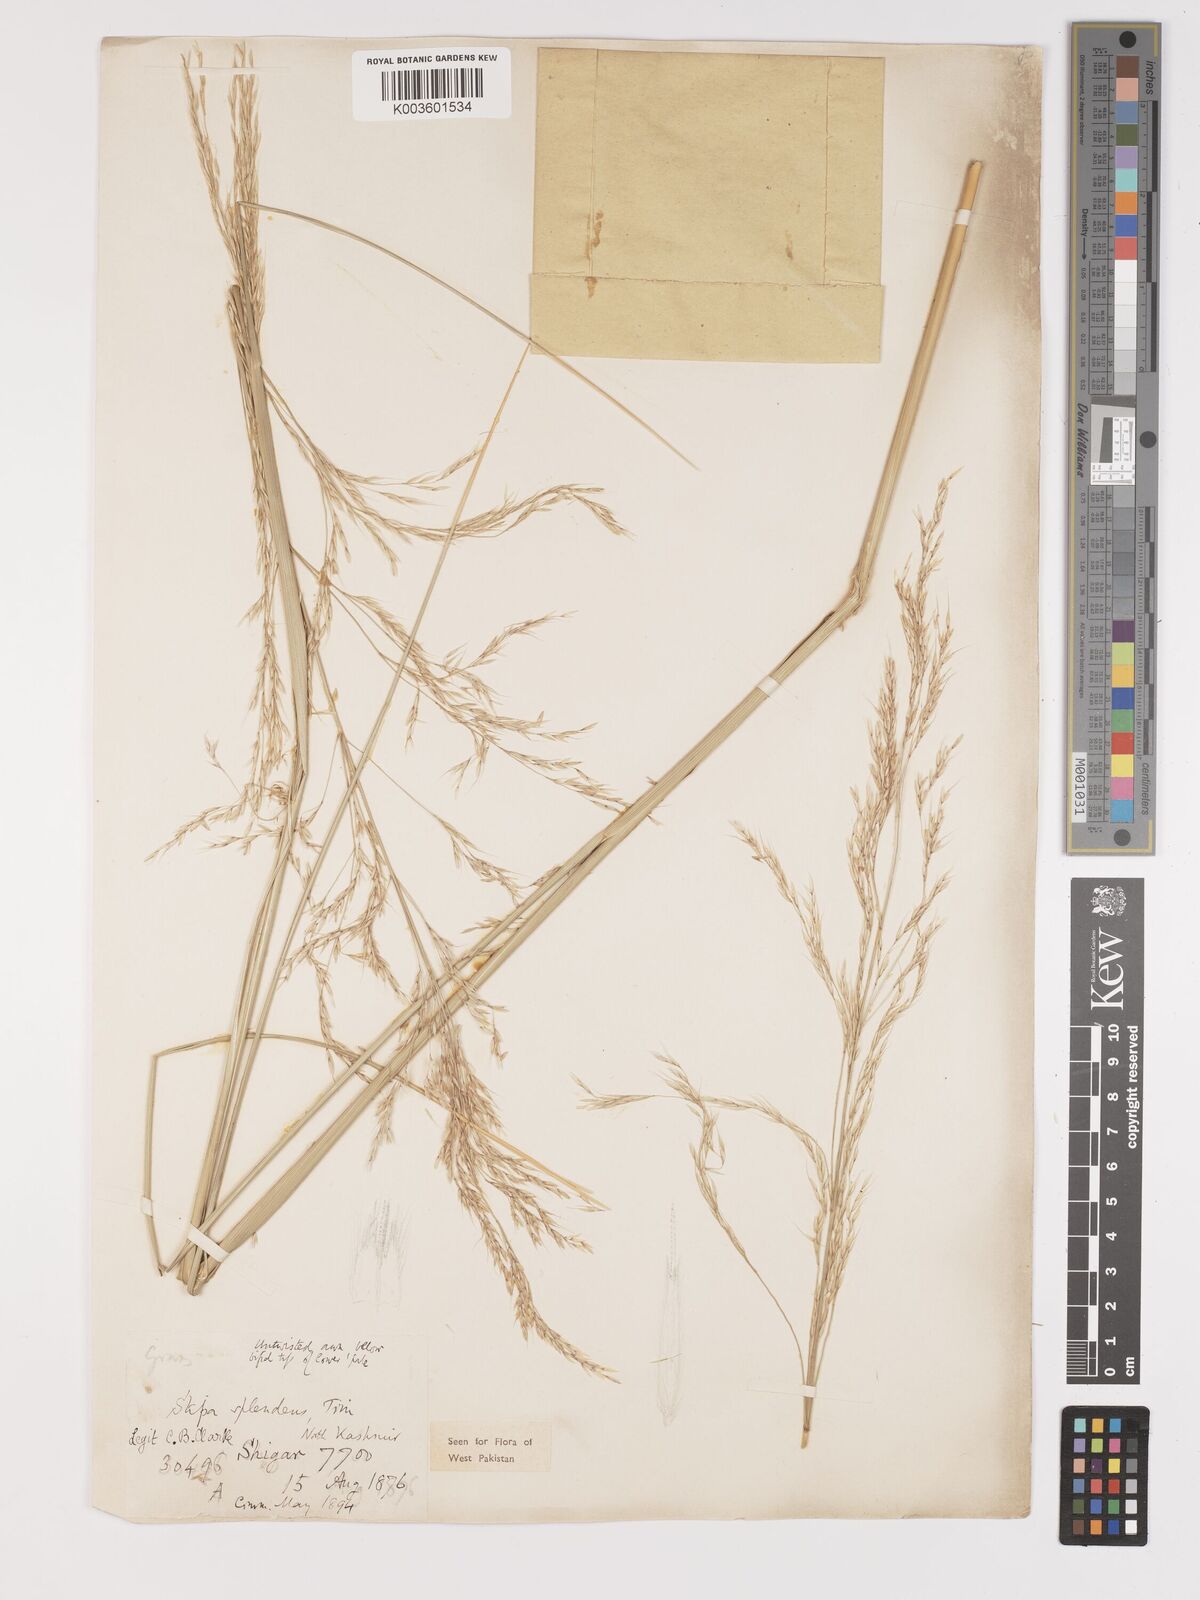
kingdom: Plantae
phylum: Tracheophyta
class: Liliopsida
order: Poales
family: Poaceae
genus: Neotrinia
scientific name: Neotrinia splendens
